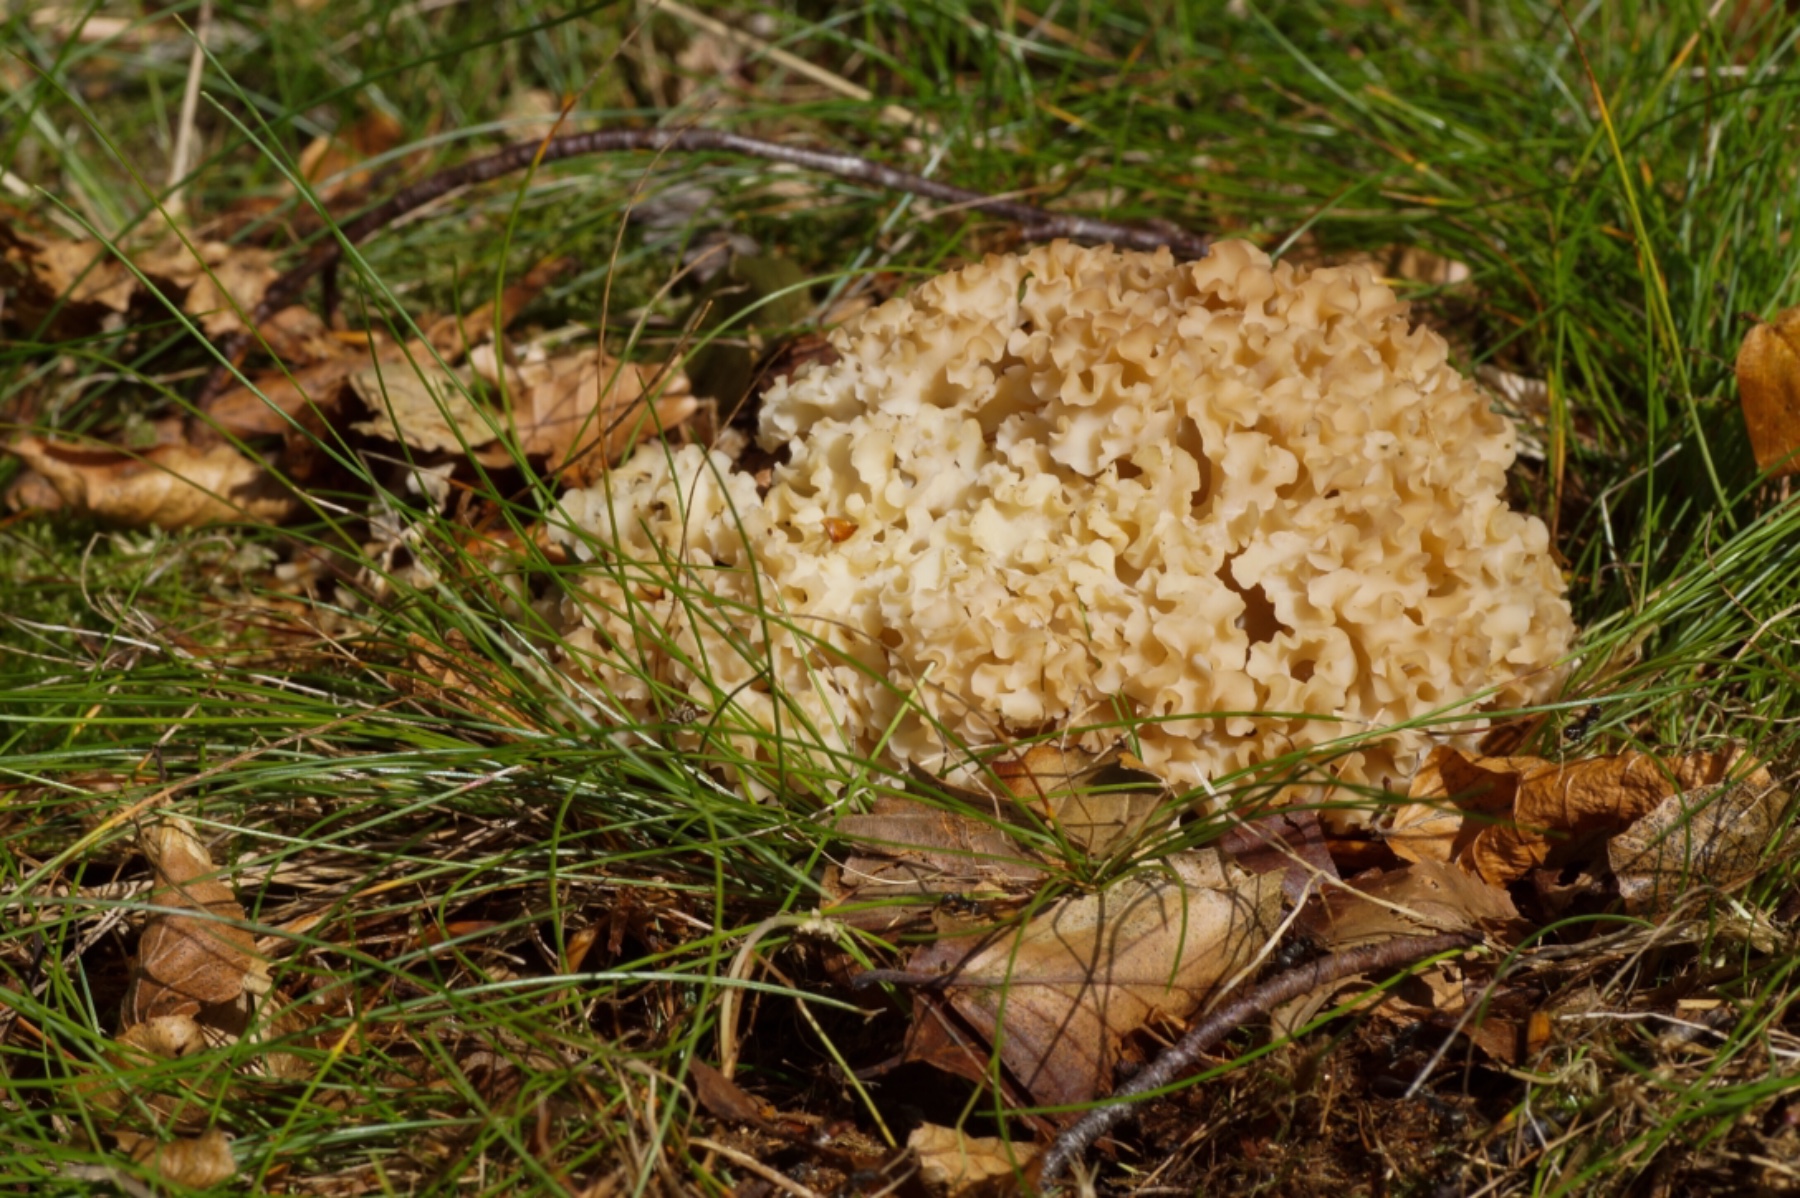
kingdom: Fungi
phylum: Basidiomycota
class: Agaricomycetes
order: Polyporales
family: Sparassidaceae
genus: Sparassis
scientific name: Sparassis crispa
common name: kruset blomkålssvamp
